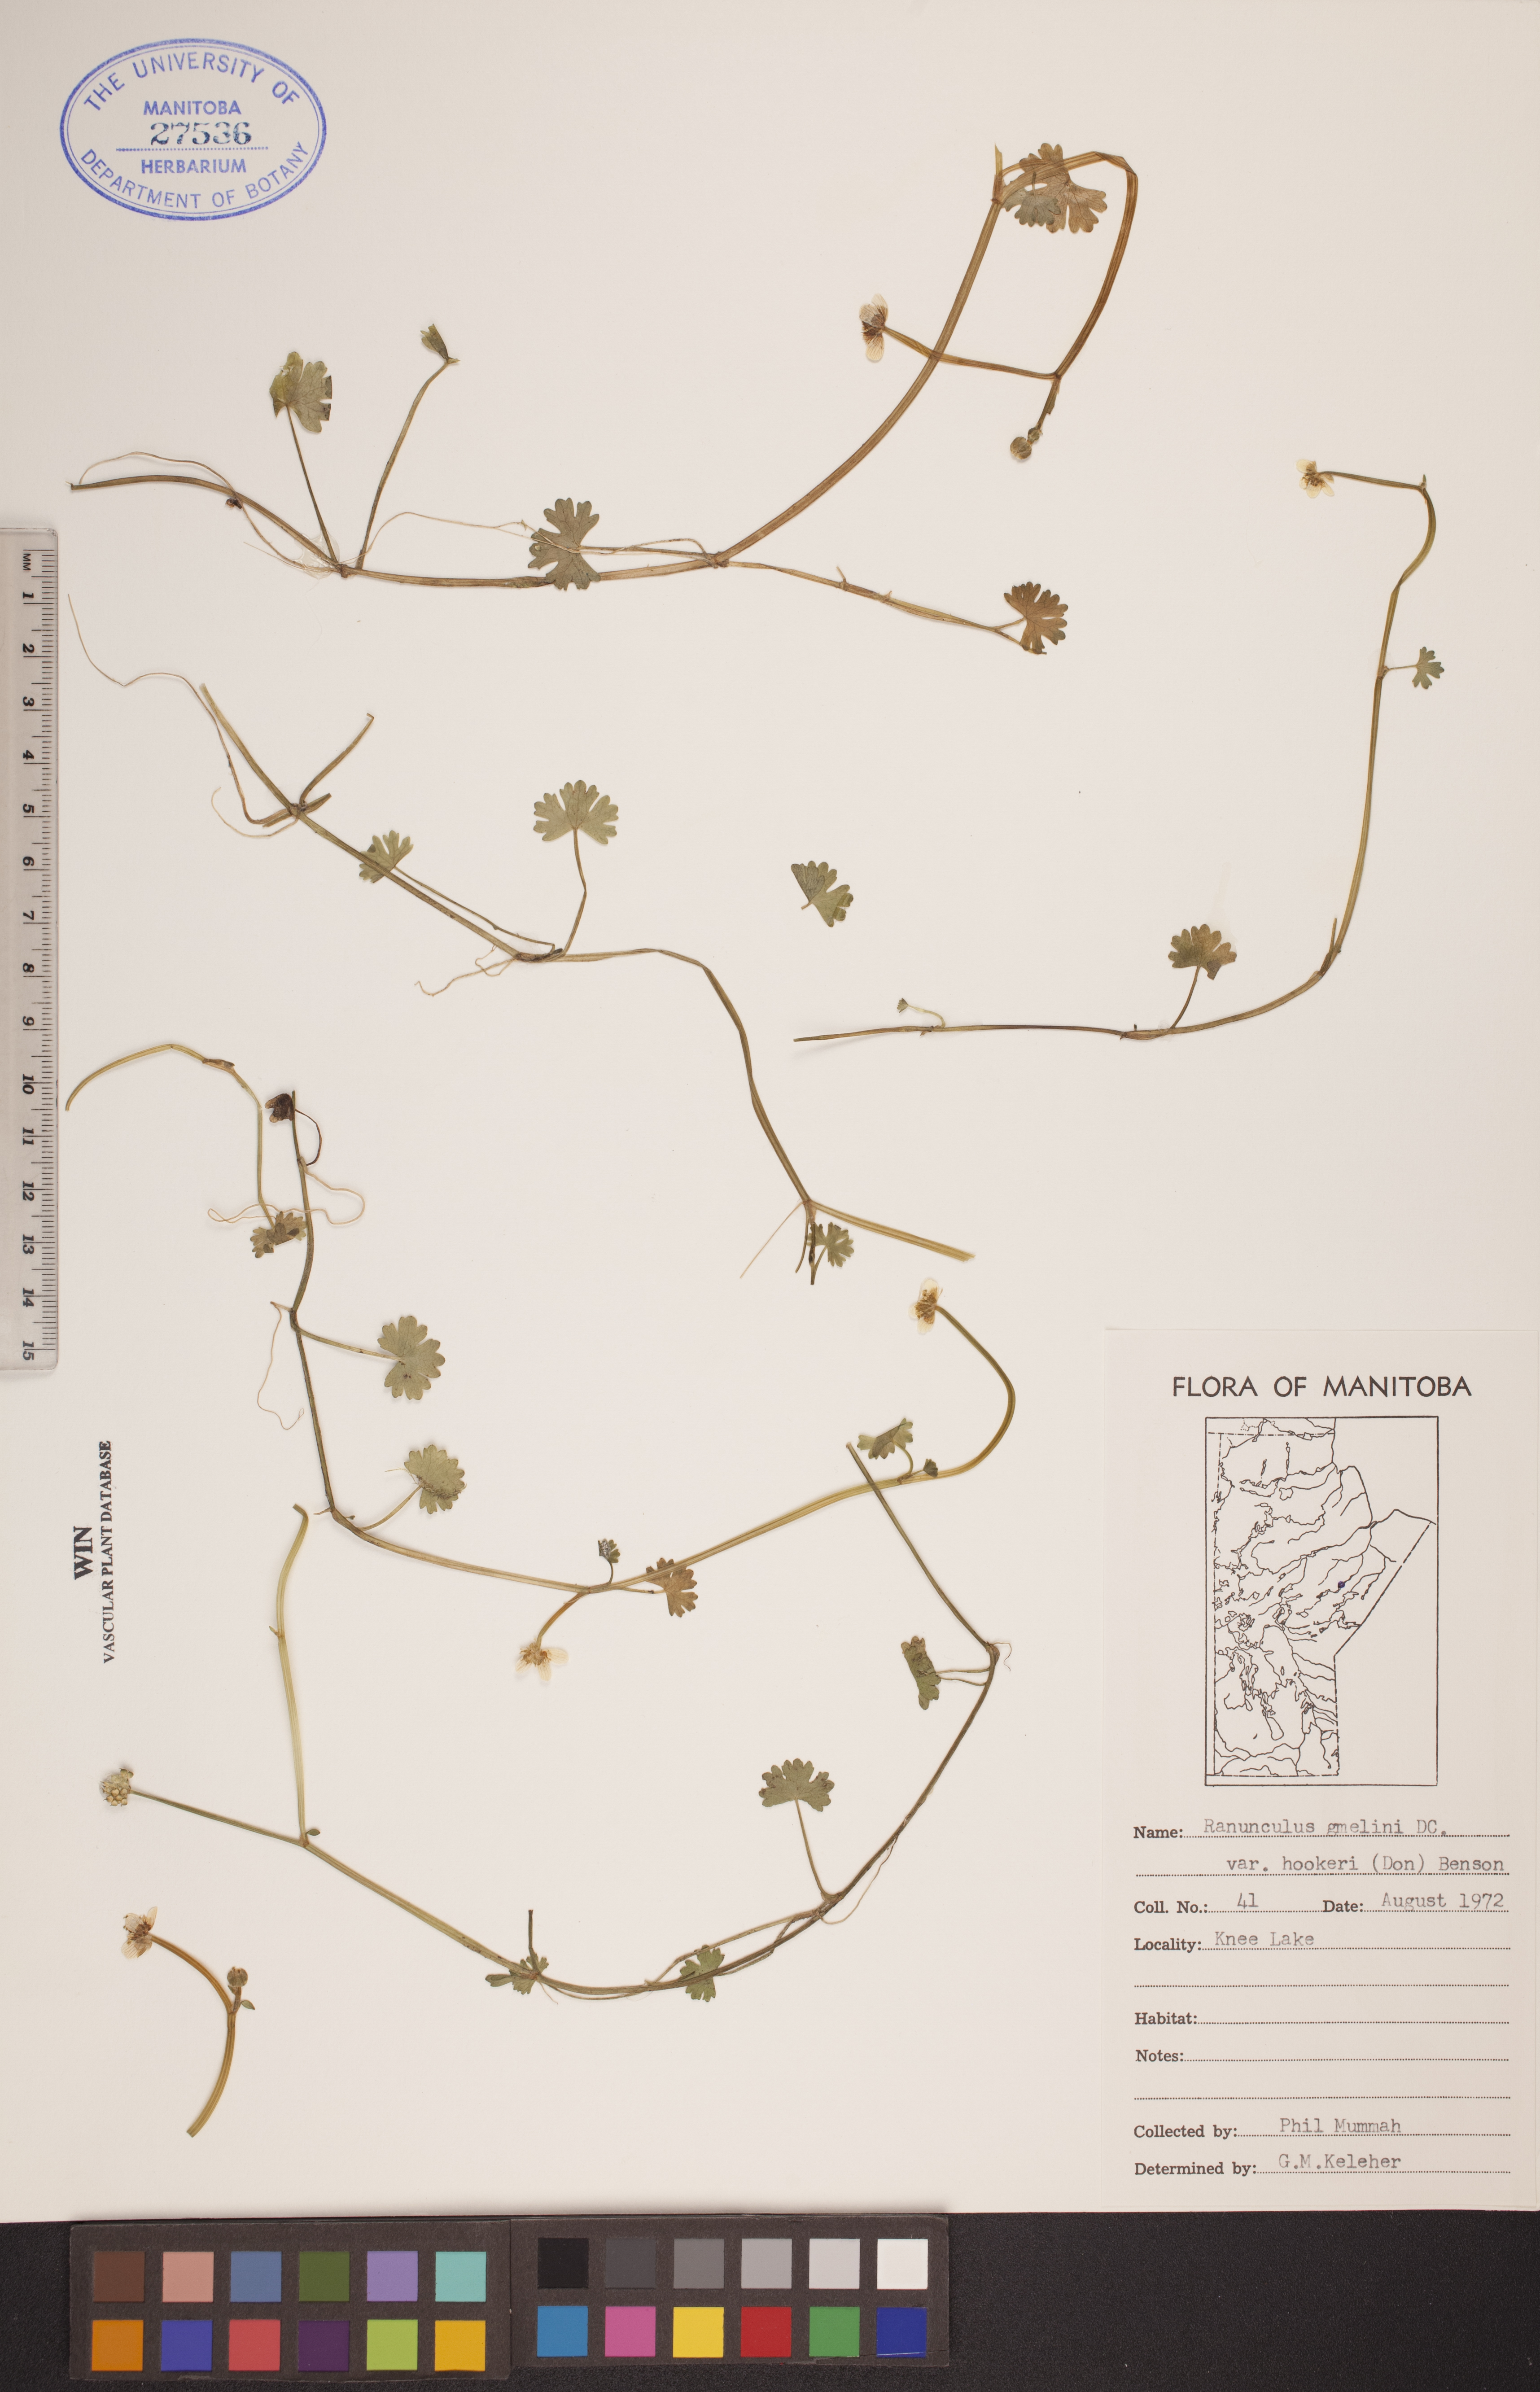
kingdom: Plantae
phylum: Tracheophyta
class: Magnoliopsida
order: Ranunculales
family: Ranunculaceae
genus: Ranunculus
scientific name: Ranunculus gmelinii
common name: Gmelin's buttercup
